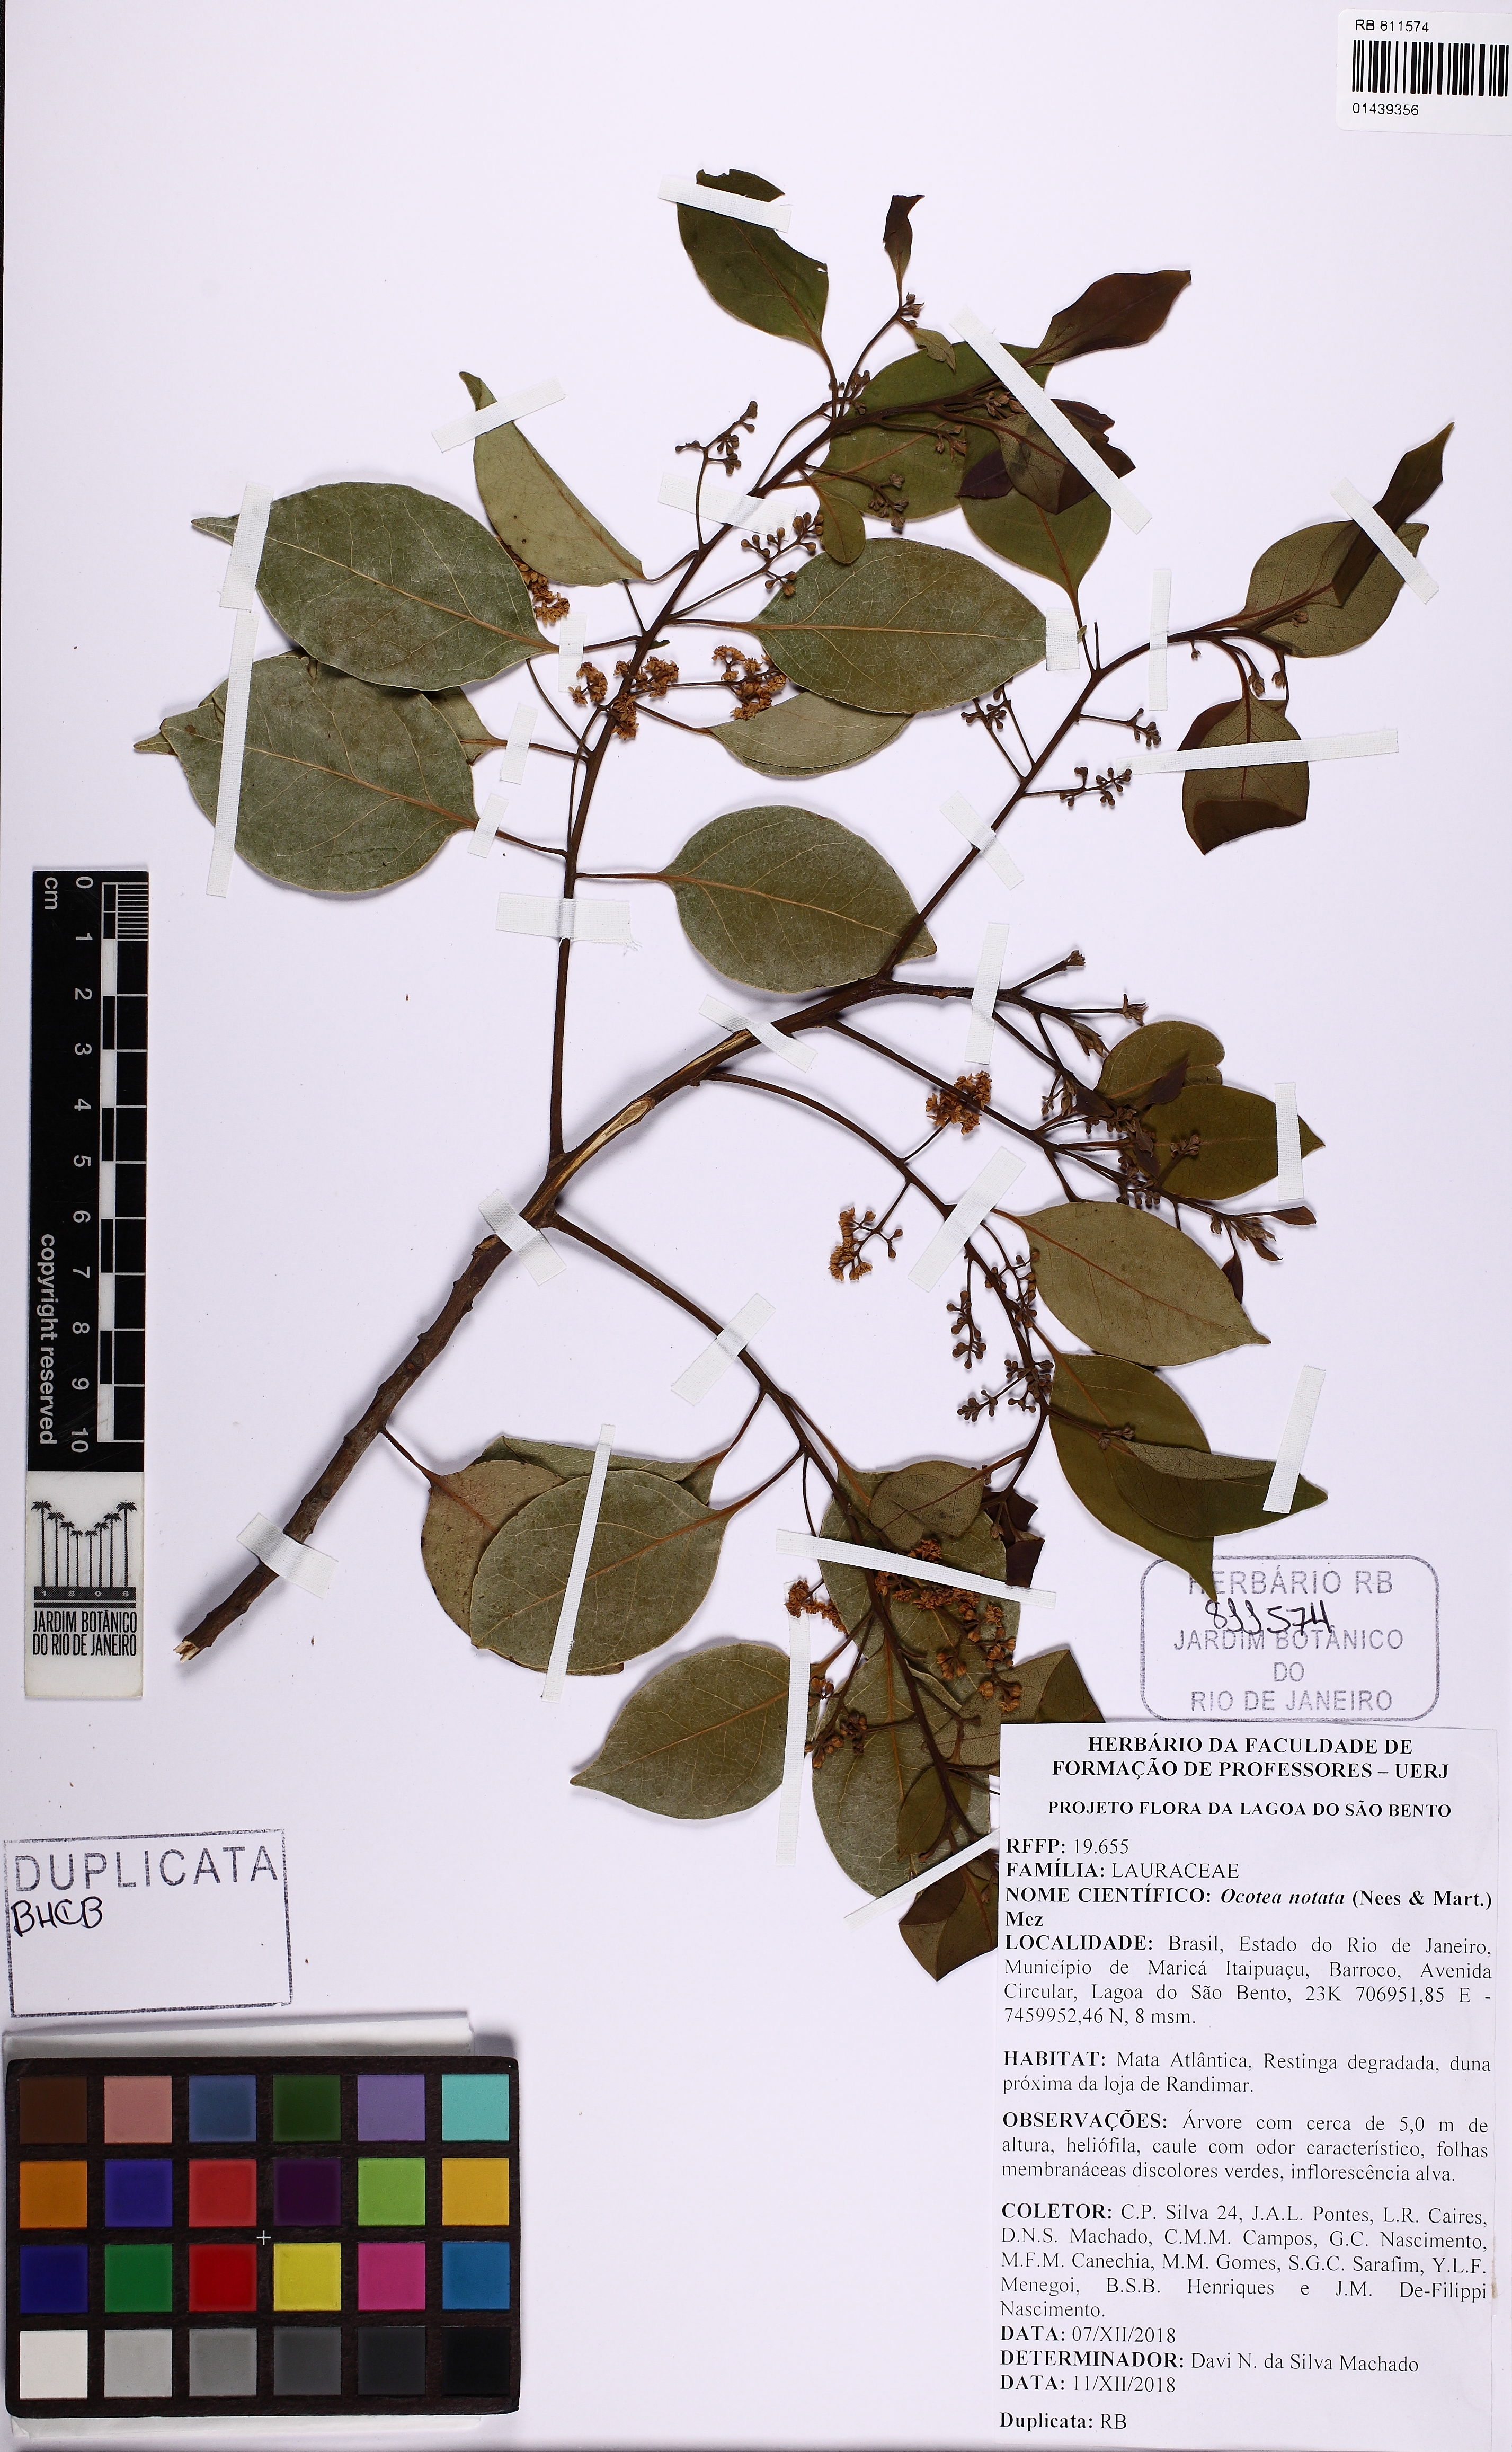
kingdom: Plantae
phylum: Tracheophyta
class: Magnoliopsida
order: Laurales
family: Lauraceae
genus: Mespilodaphne
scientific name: Mespilodaphne notata
